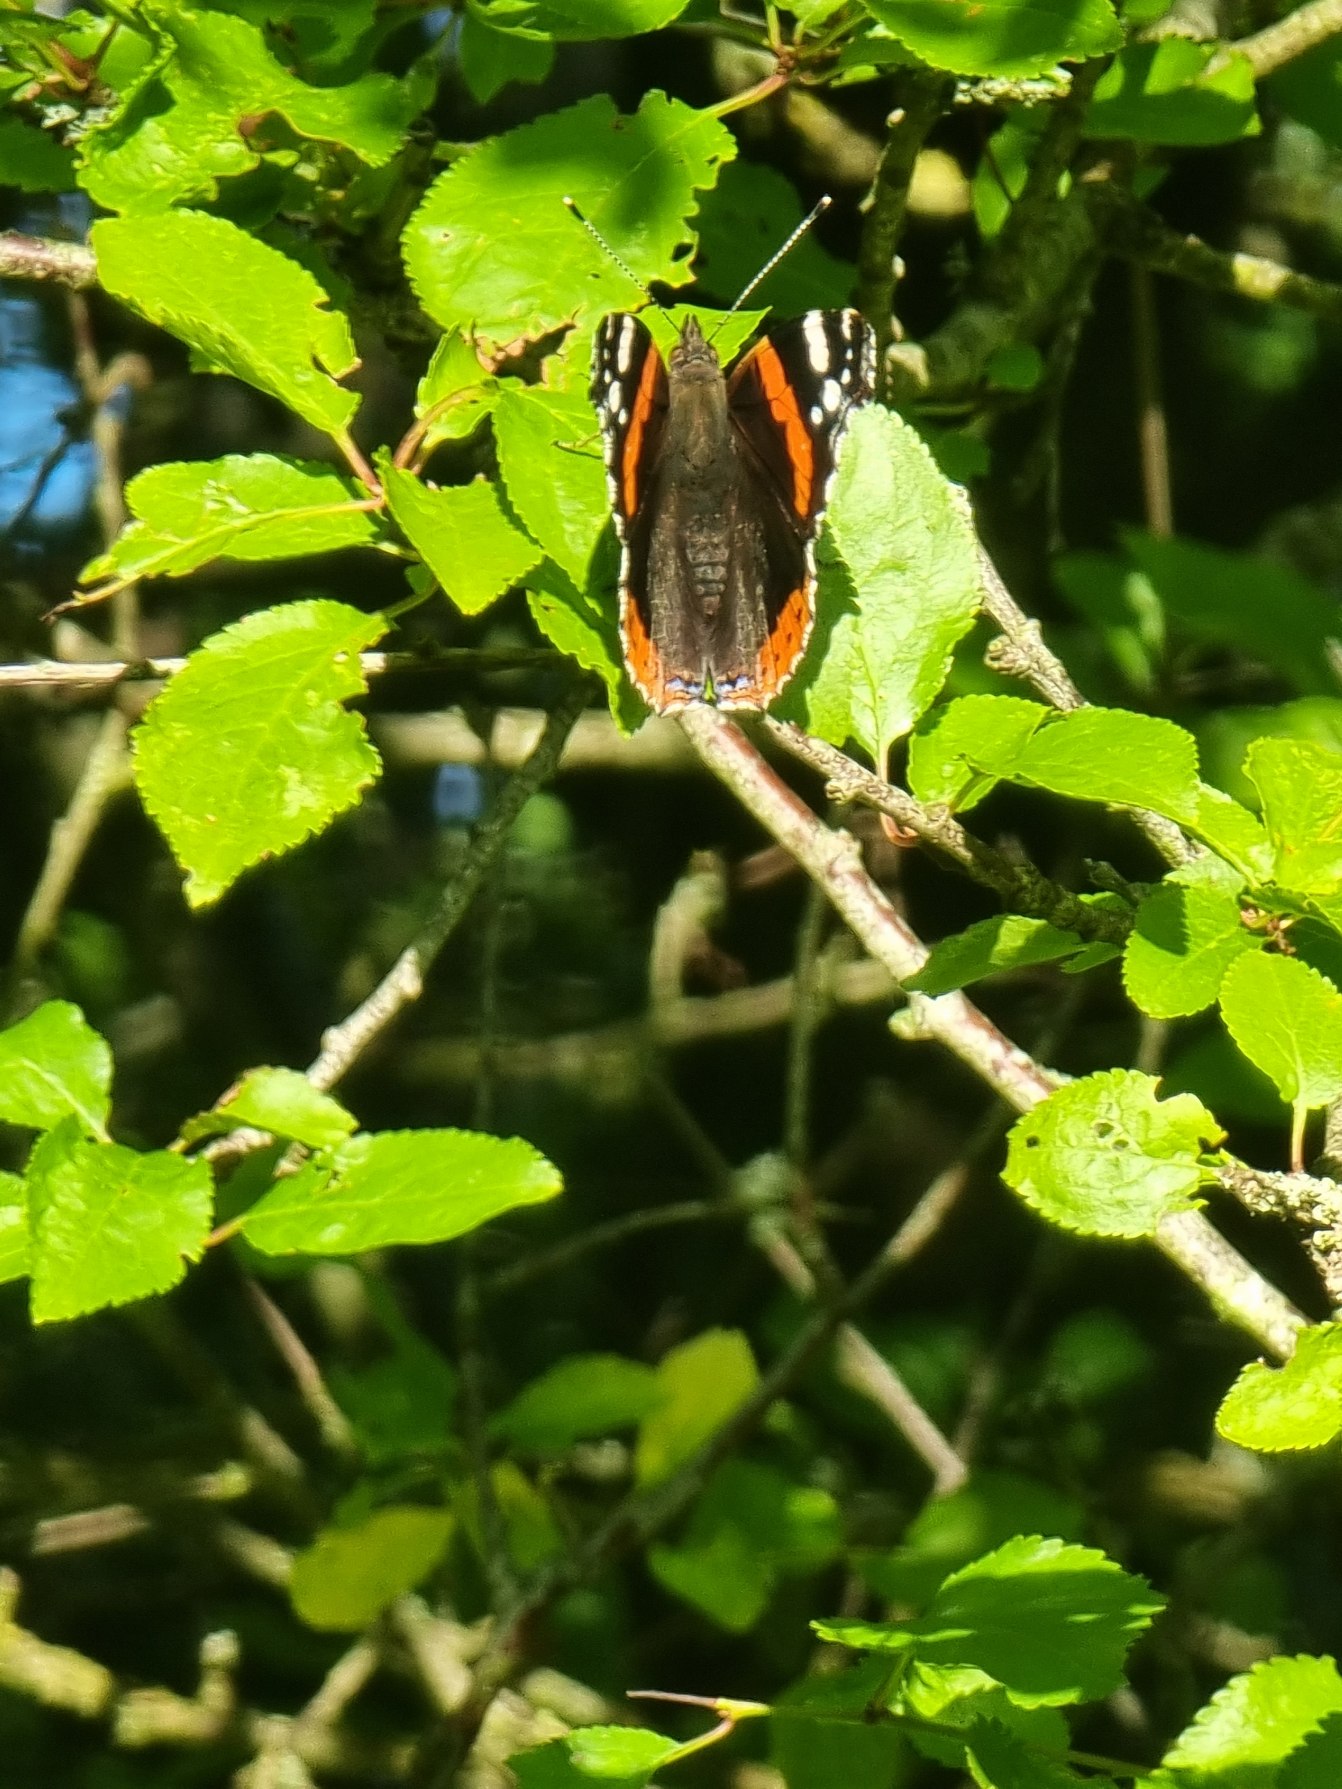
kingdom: Animalia
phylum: Arthropoda
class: Insecta
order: Lepidoptera
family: Nymphalidae
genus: Vanessa
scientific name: Vanessa atalanta
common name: Admiral
